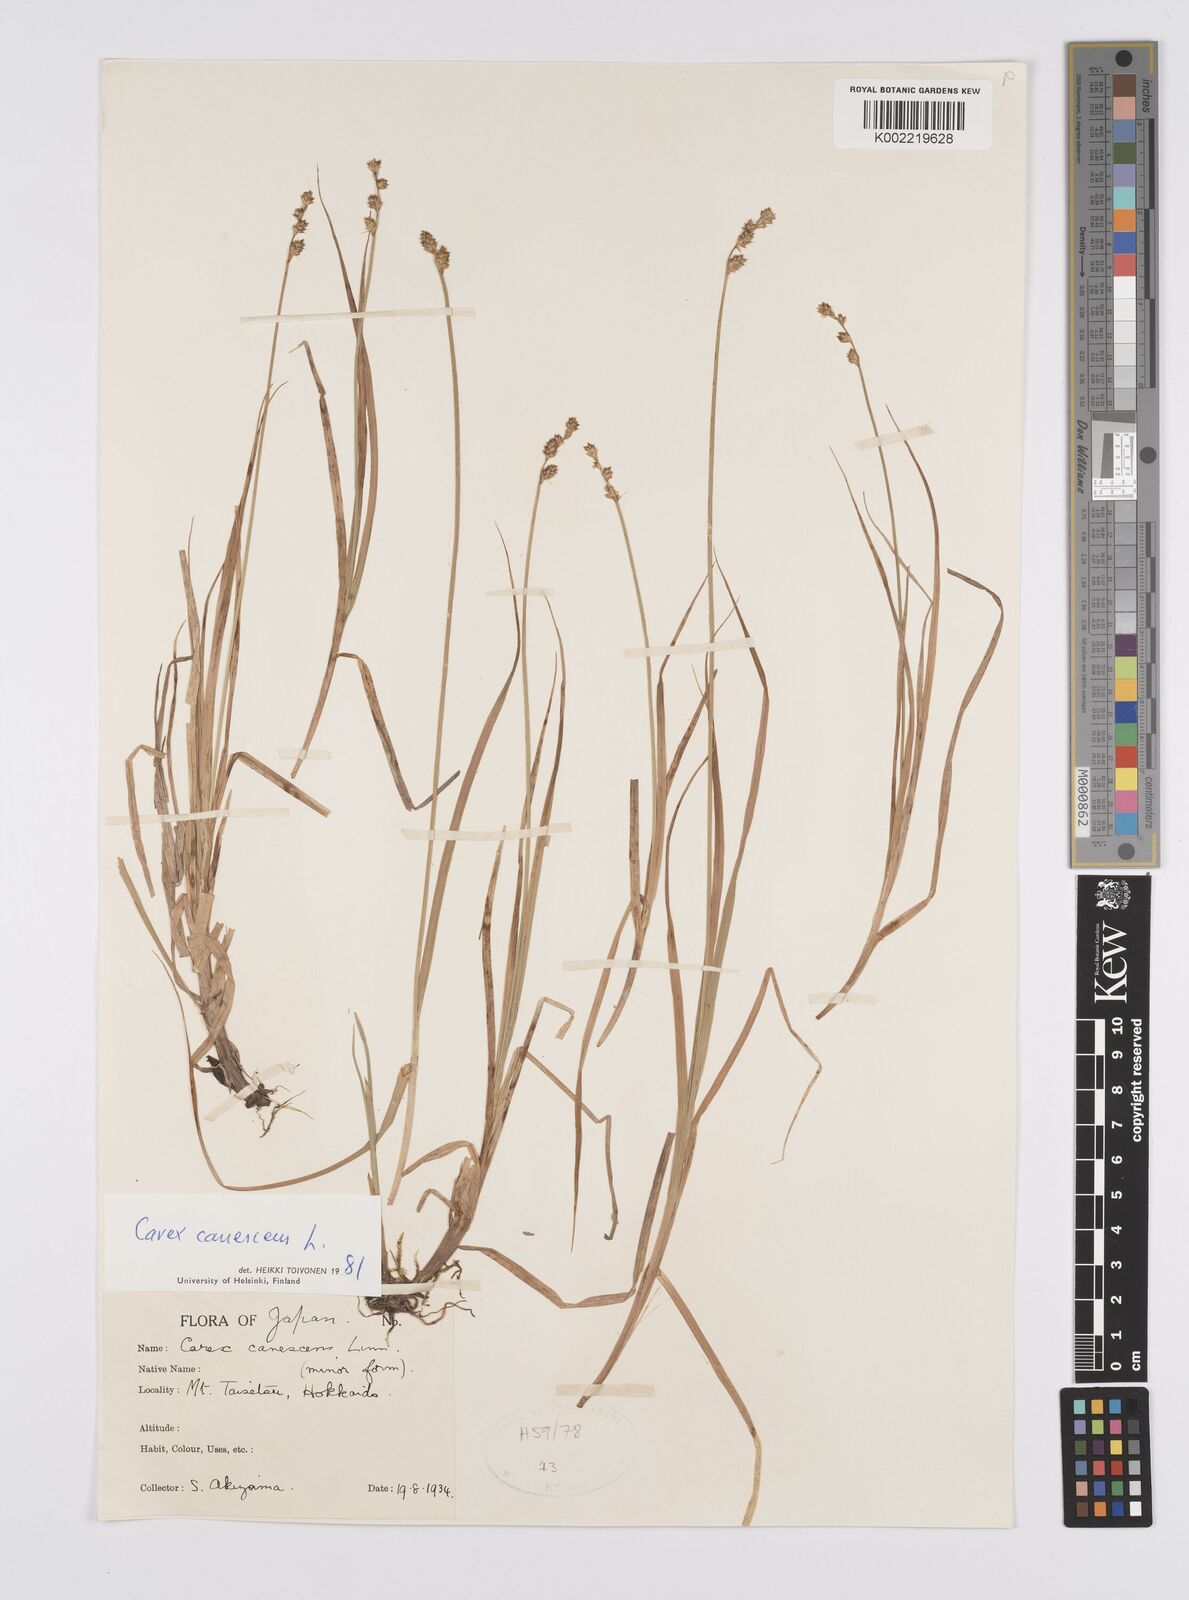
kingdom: Plantae
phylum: Tracheophyta
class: Liliopsida
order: Poales
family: Cyperaceae
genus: Carex
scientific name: Carex canescens
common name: White sedge
